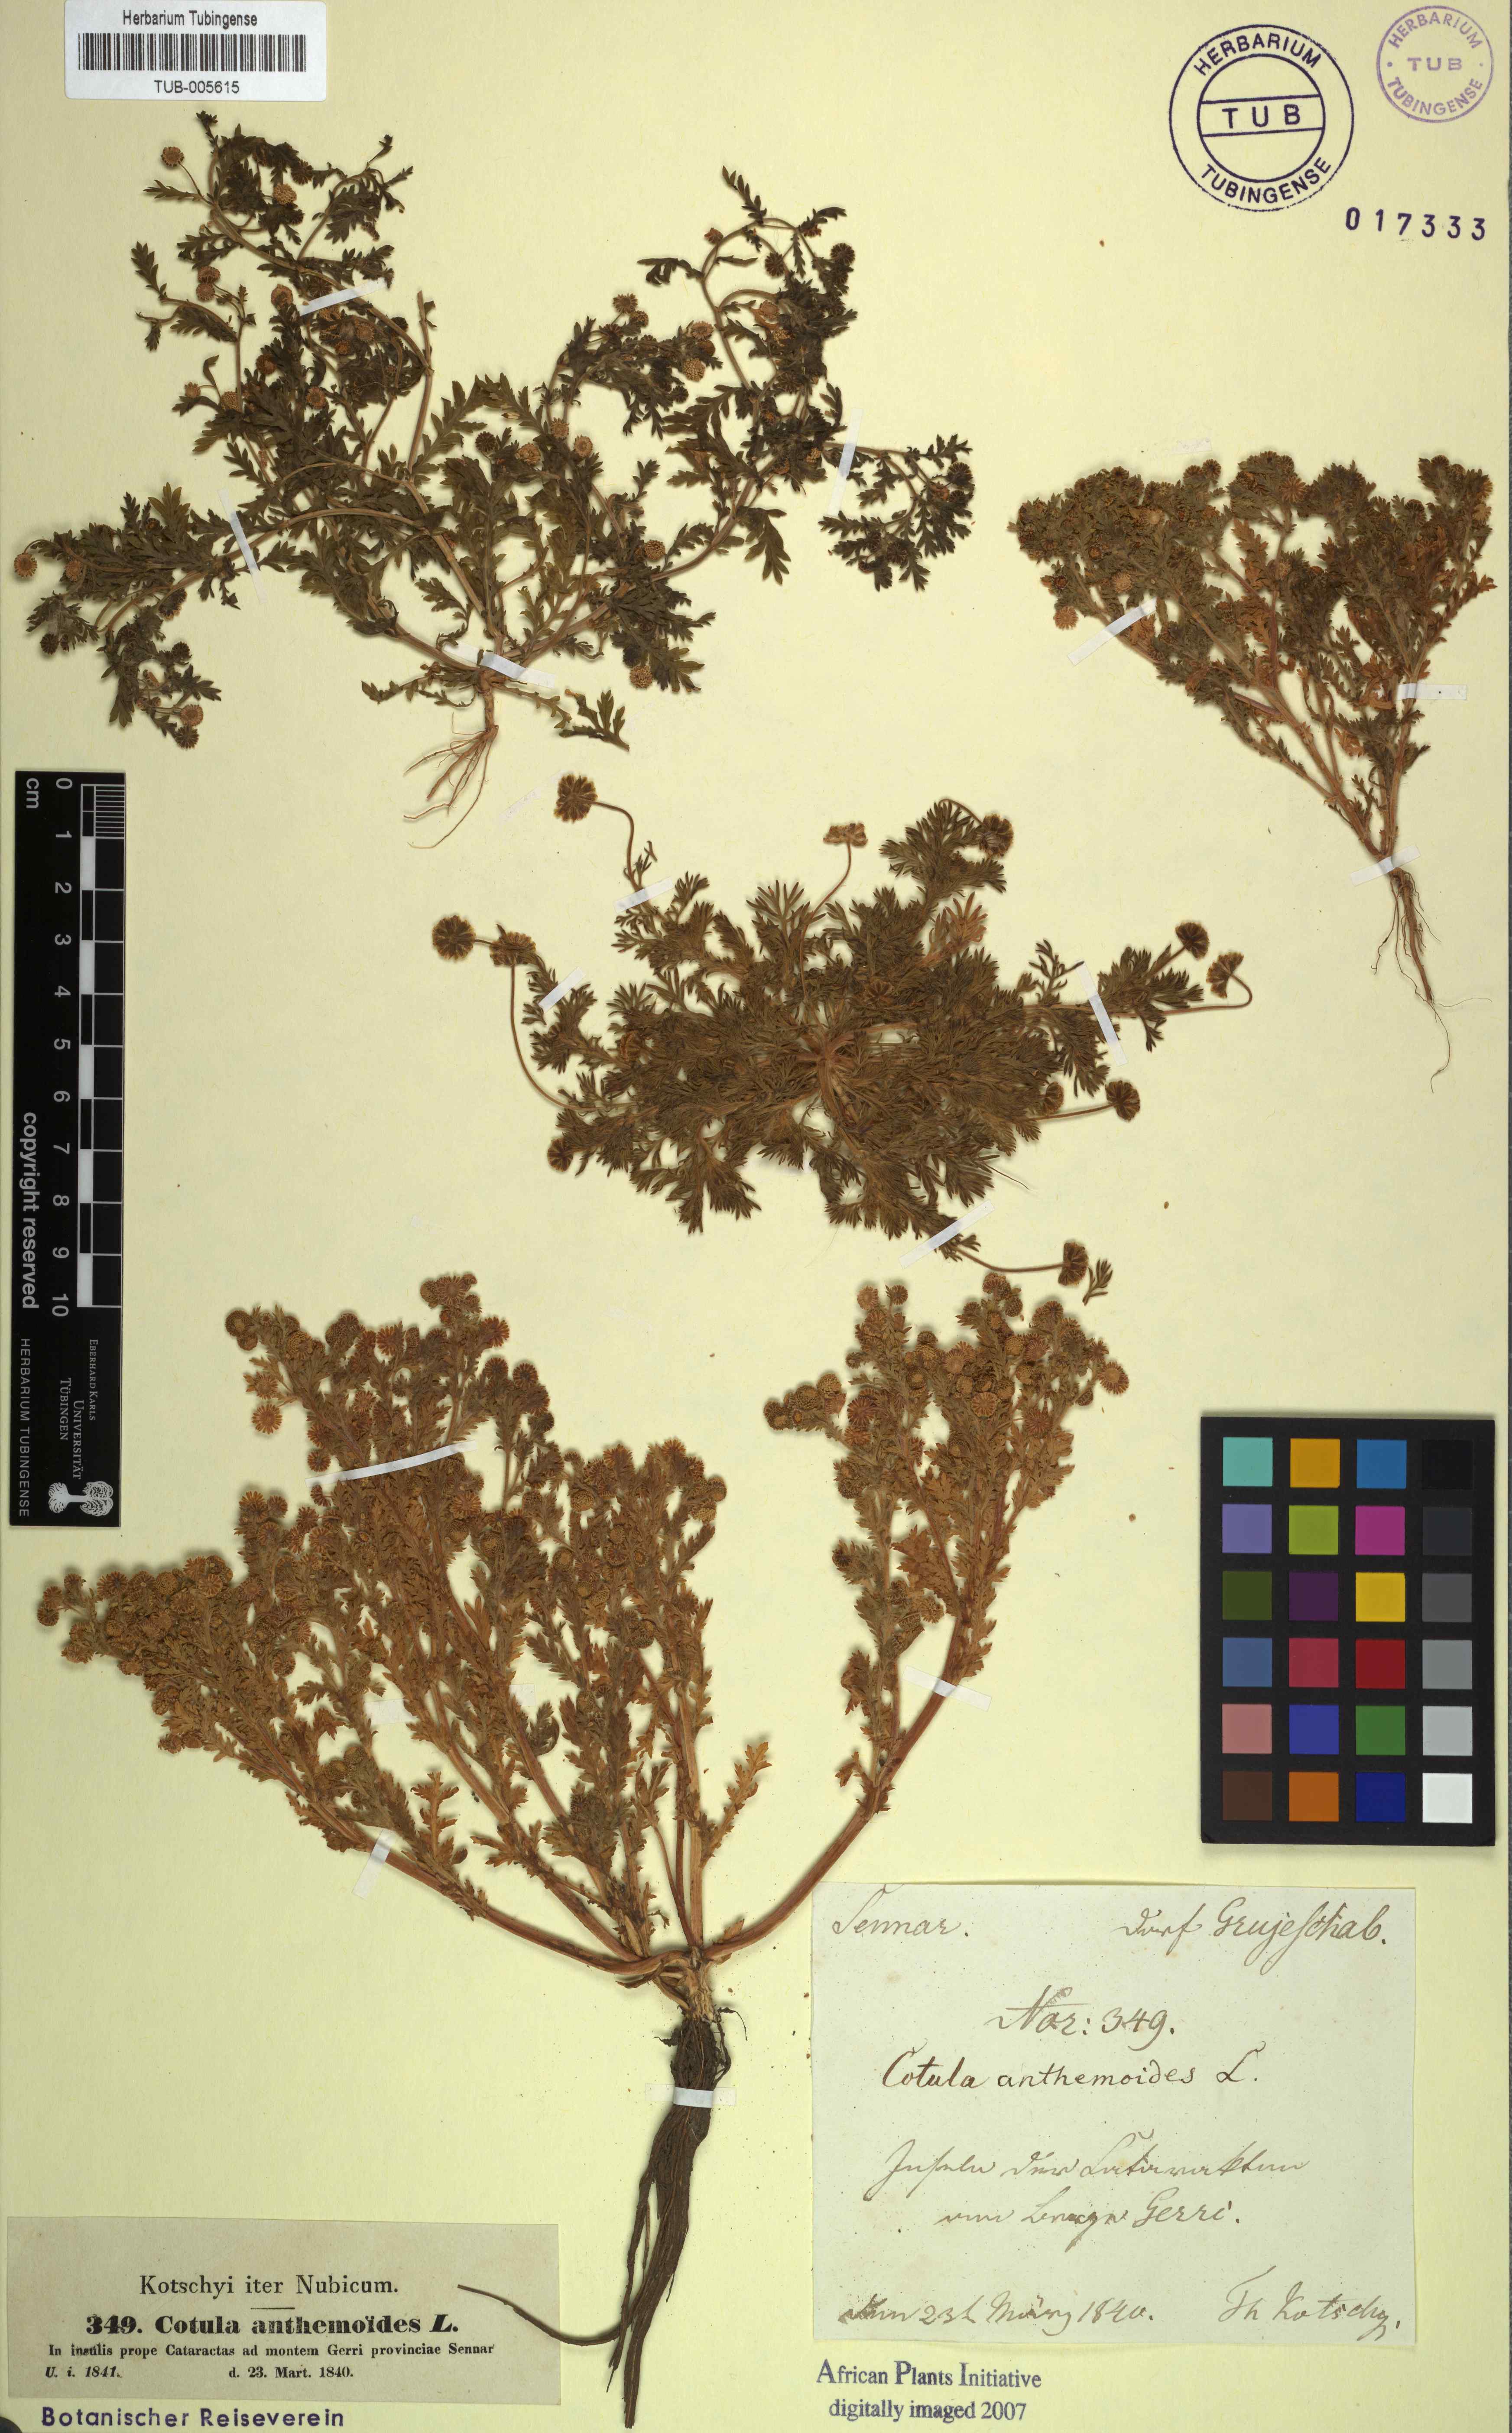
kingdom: Plantae
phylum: Tracheophyta
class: Magnoliopsida
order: Asterales
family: Asteraceae
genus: Cotula
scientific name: Cotula anthemoides
